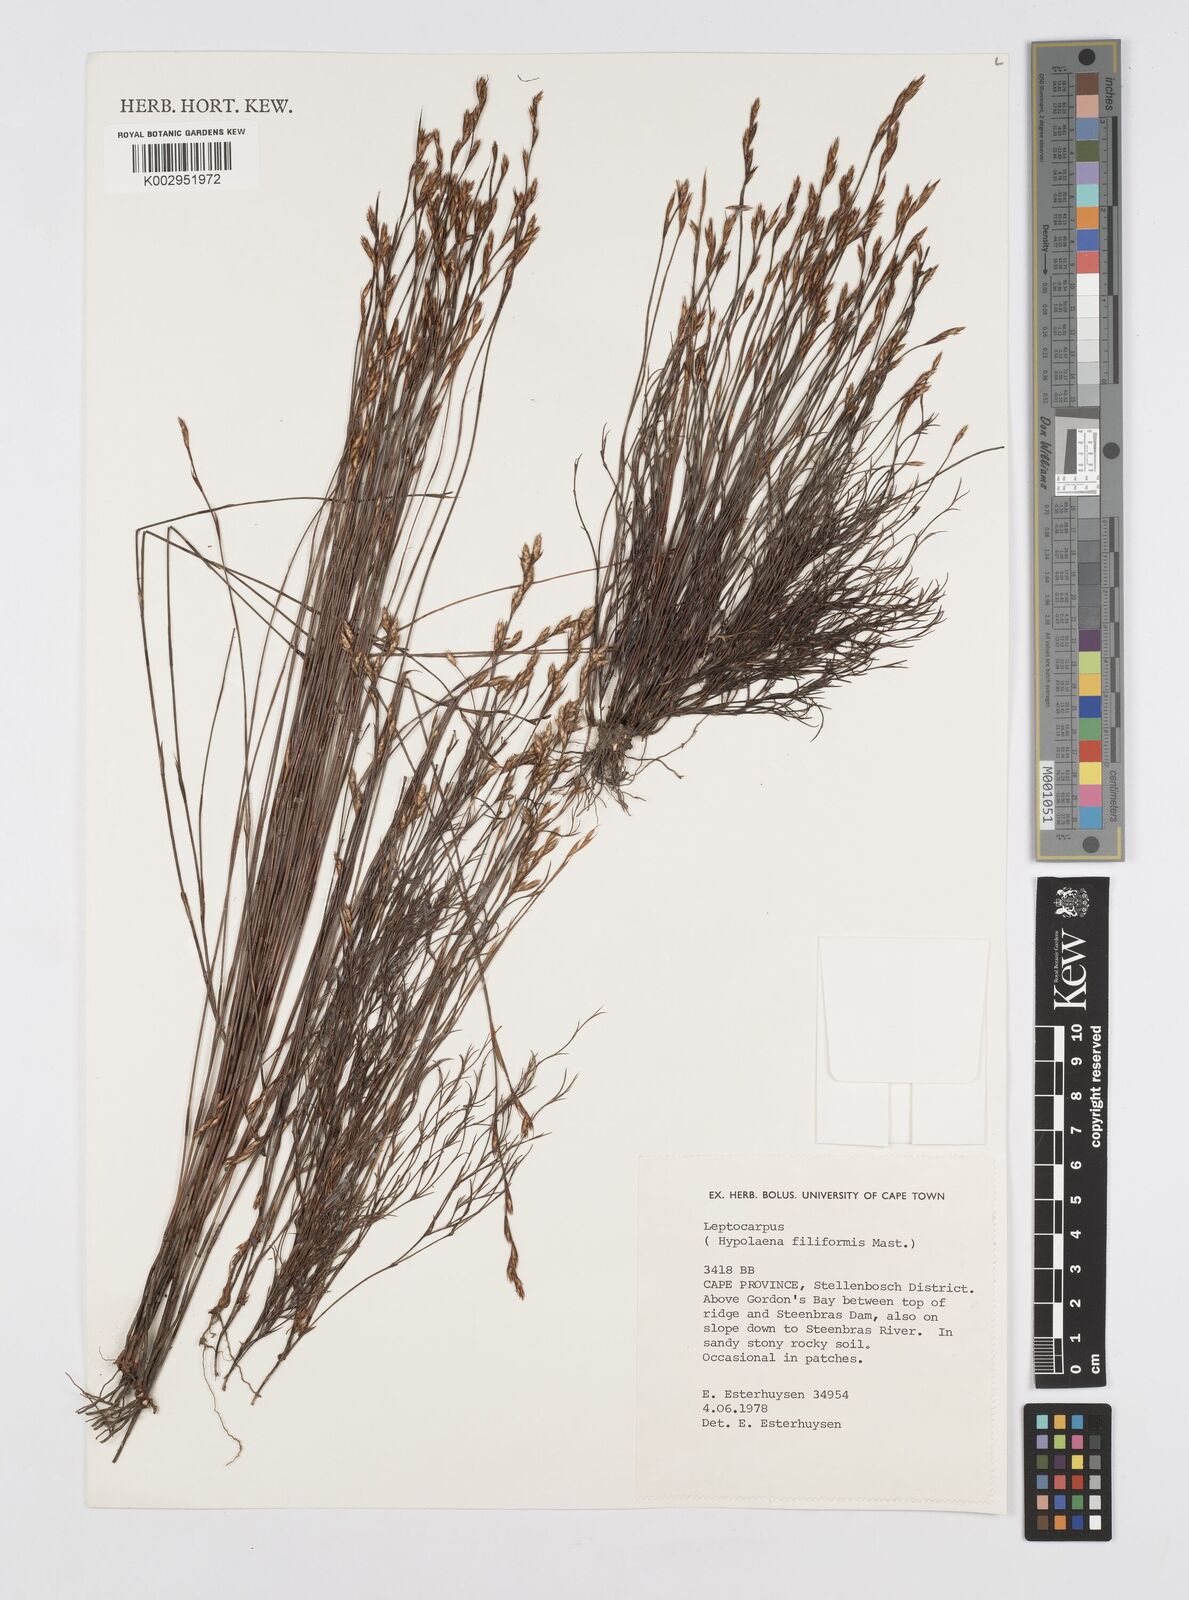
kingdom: Plantae
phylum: Tracheophyta
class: Liliopsida
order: Poales
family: Restionaceae
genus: Restio
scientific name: Restio filiformis
